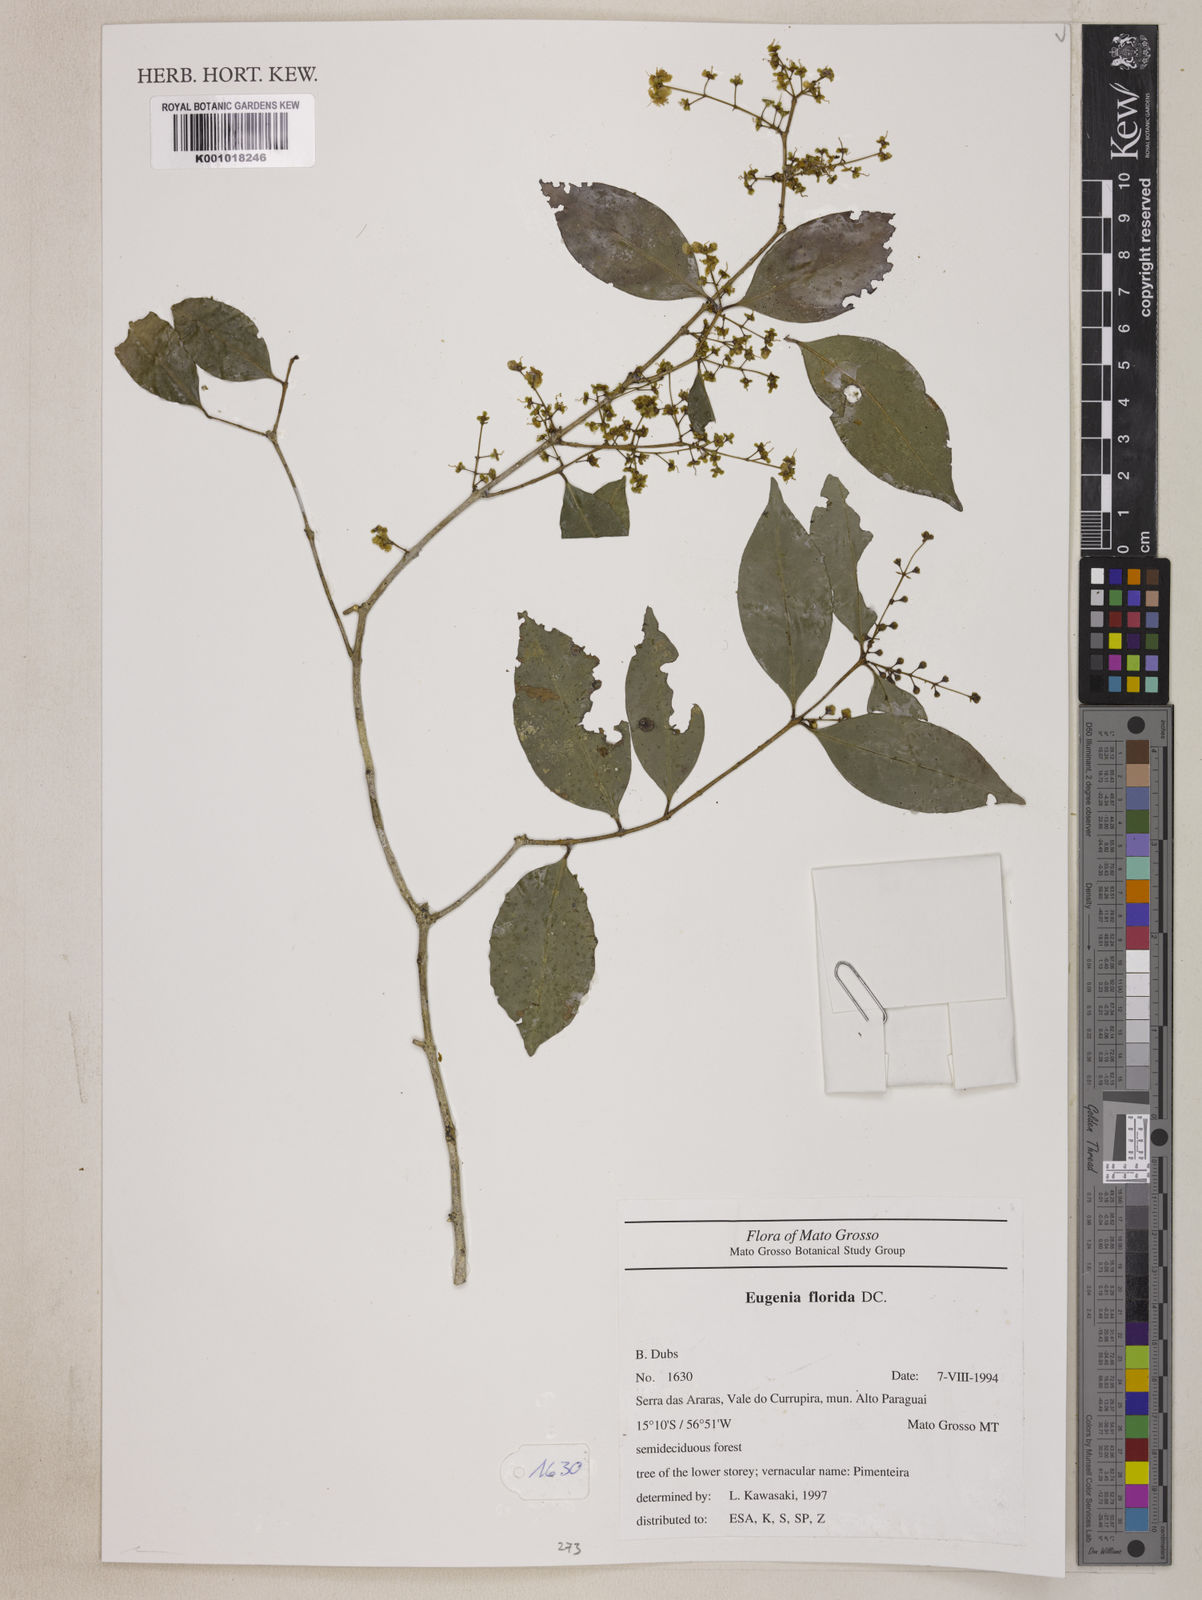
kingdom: Plantae
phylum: Tracheophyta
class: Magnoliopsida
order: Myrtales
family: Myrtaceae
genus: Eugenia
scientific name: Eugenia florida
